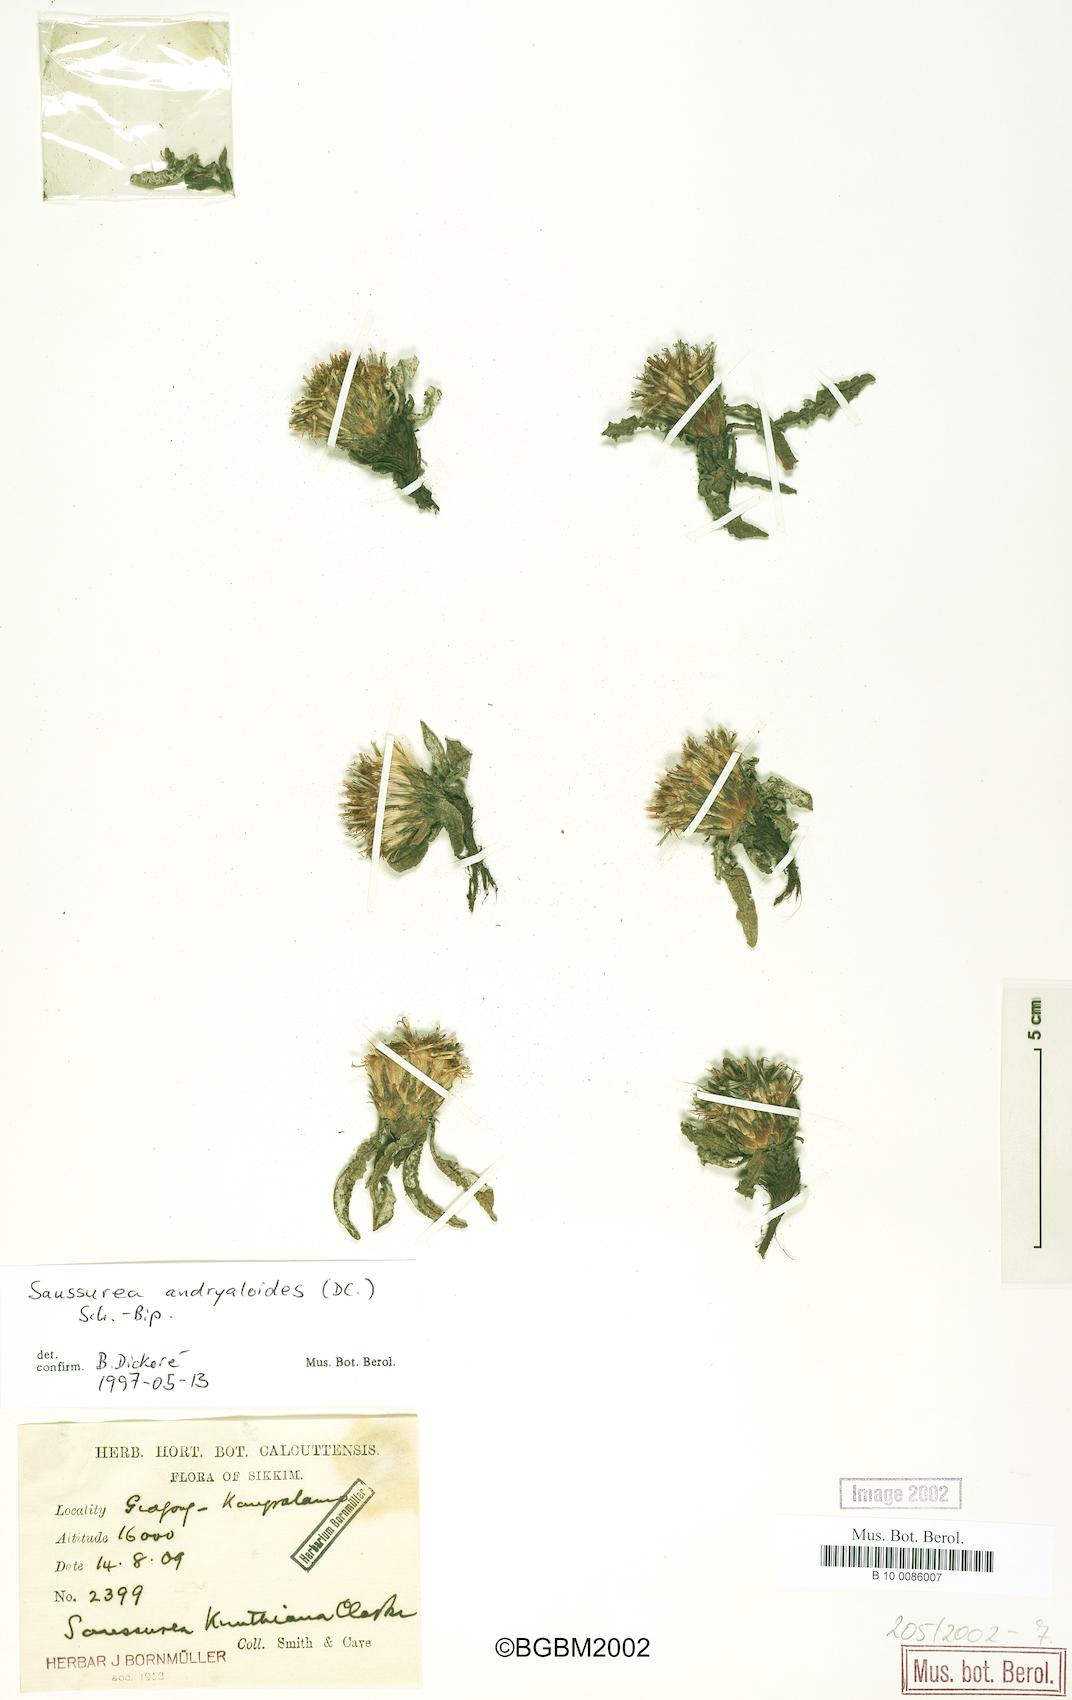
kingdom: Plantae
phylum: Tracheophyta
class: Magnoliopsida
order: Asterales
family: Asteraceae
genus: Saussurea
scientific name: Saussurea andryaloides
